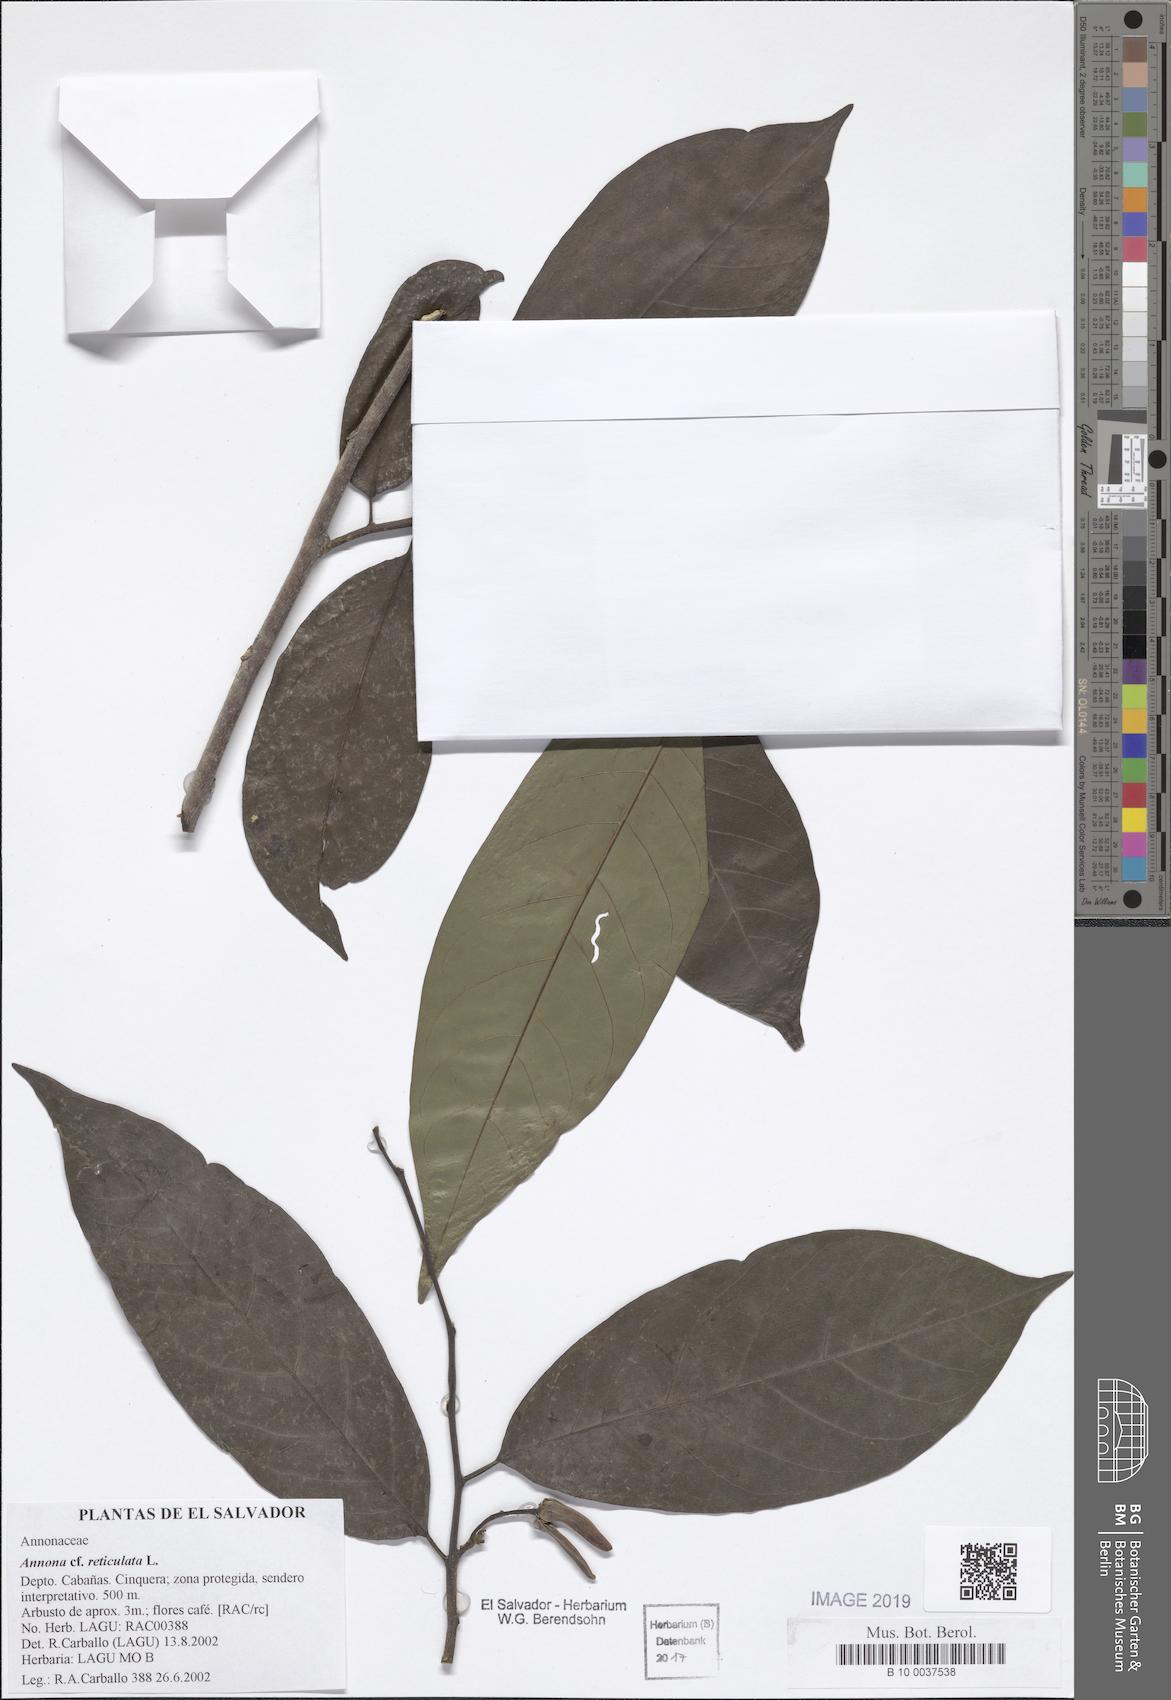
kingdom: Plantae
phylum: Tracheophyta
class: Magnoliopsida
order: Magnoliales
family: Annonaceae
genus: Annona
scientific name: Annona reticulata
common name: Custard apple
